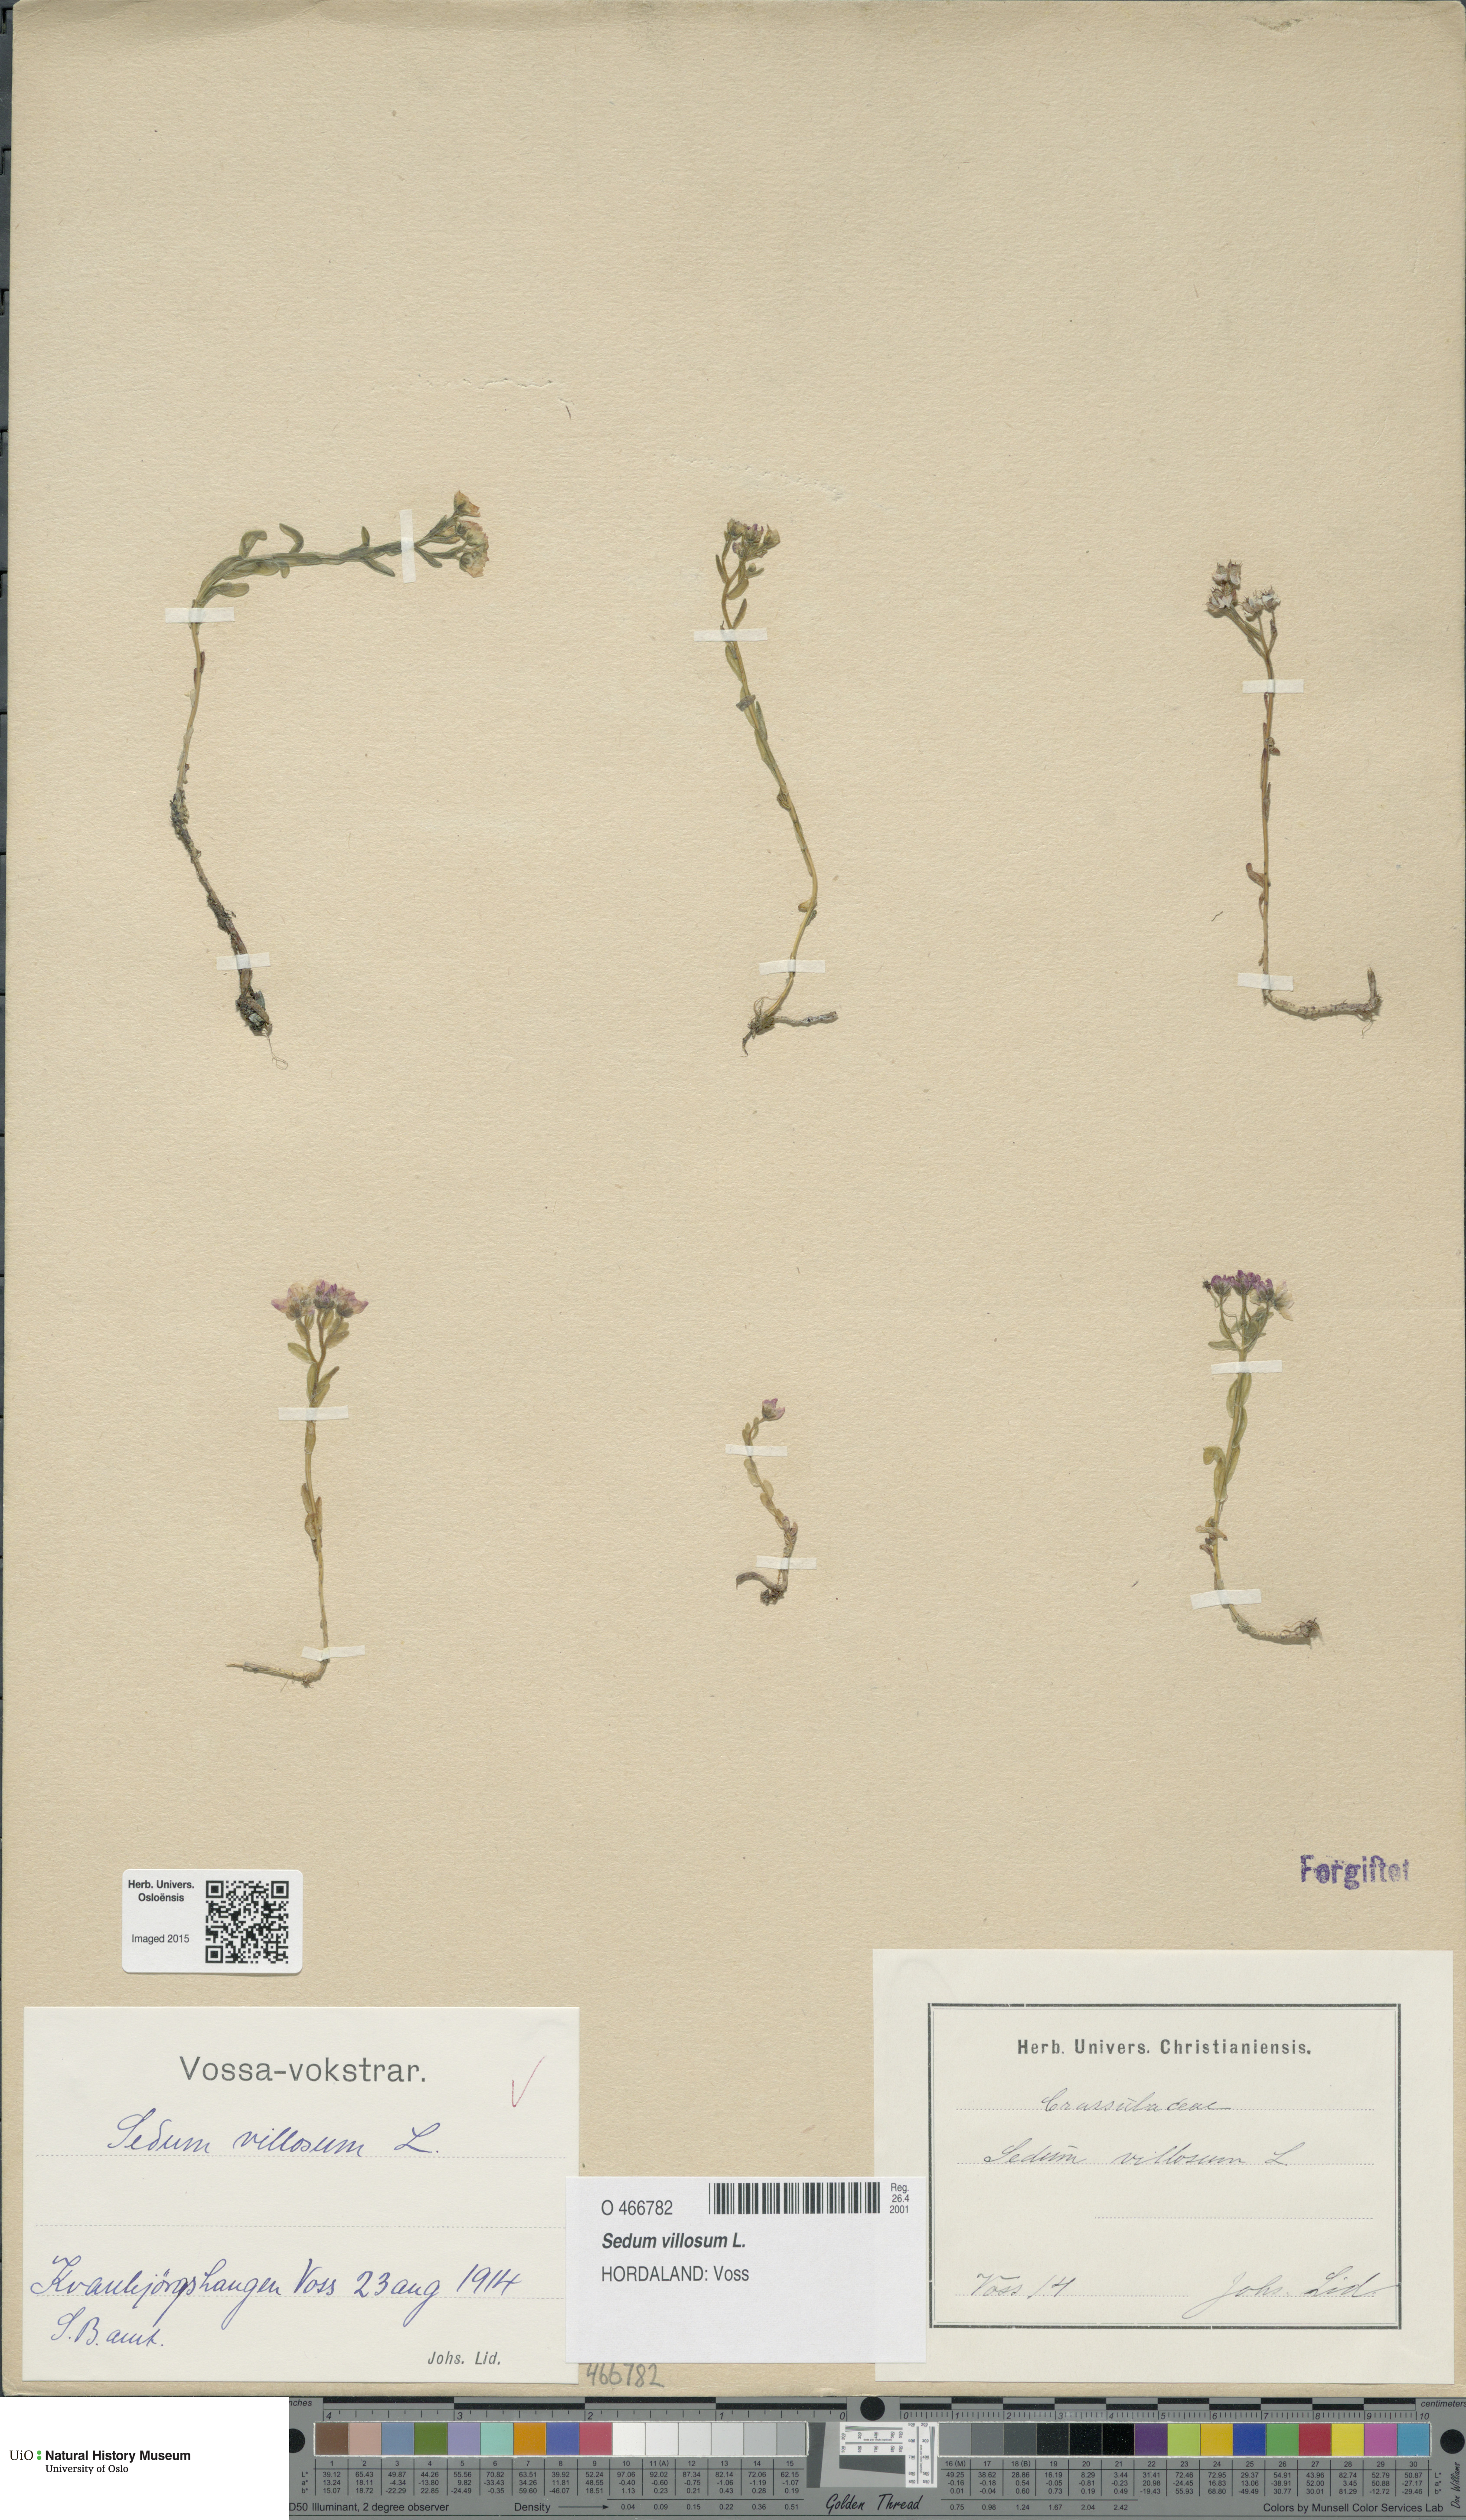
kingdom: Plantae
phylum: Tracheophyta
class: Magnoliopsida
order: Saxifragales
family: Crassulaceae
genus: Sedum
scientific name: Sedum villosum
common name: Hairy stonecrop
